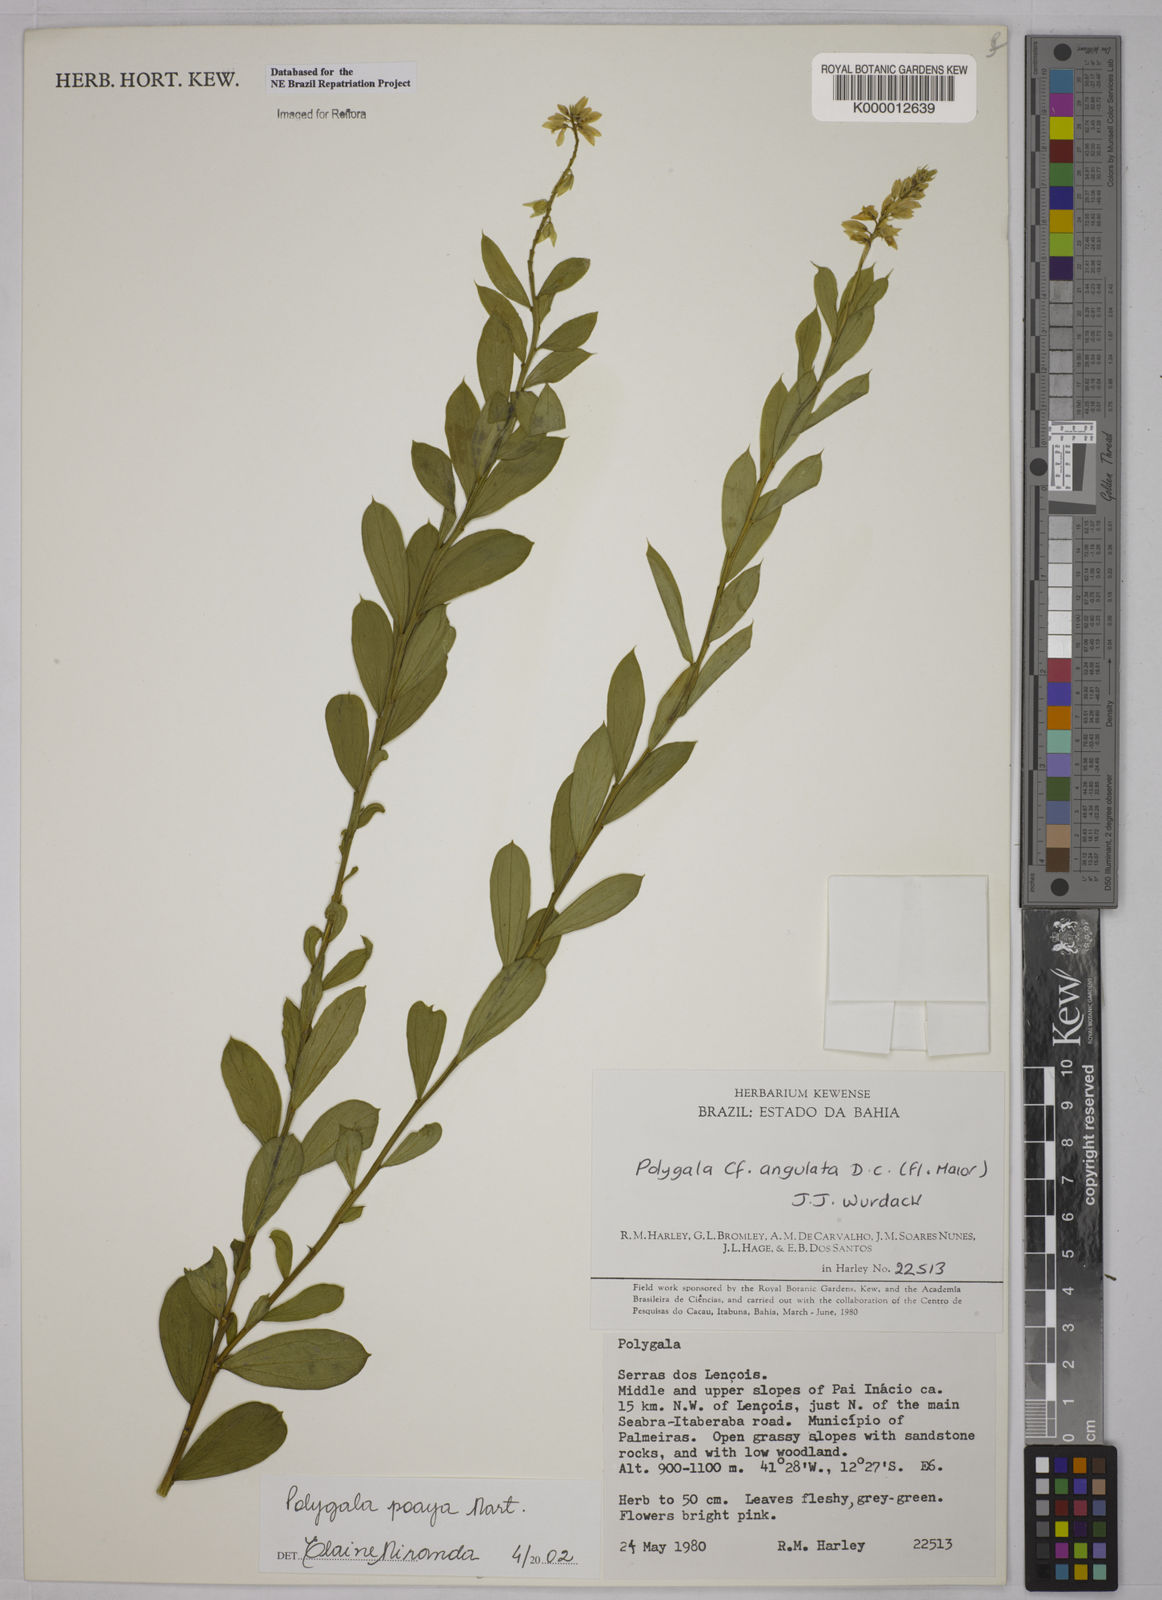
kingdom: Plantae
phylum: Tracheophyta
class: Magnoliopsida
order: Fabales
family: Polygalaceae
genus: Polygala
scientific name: Polygala poaya
